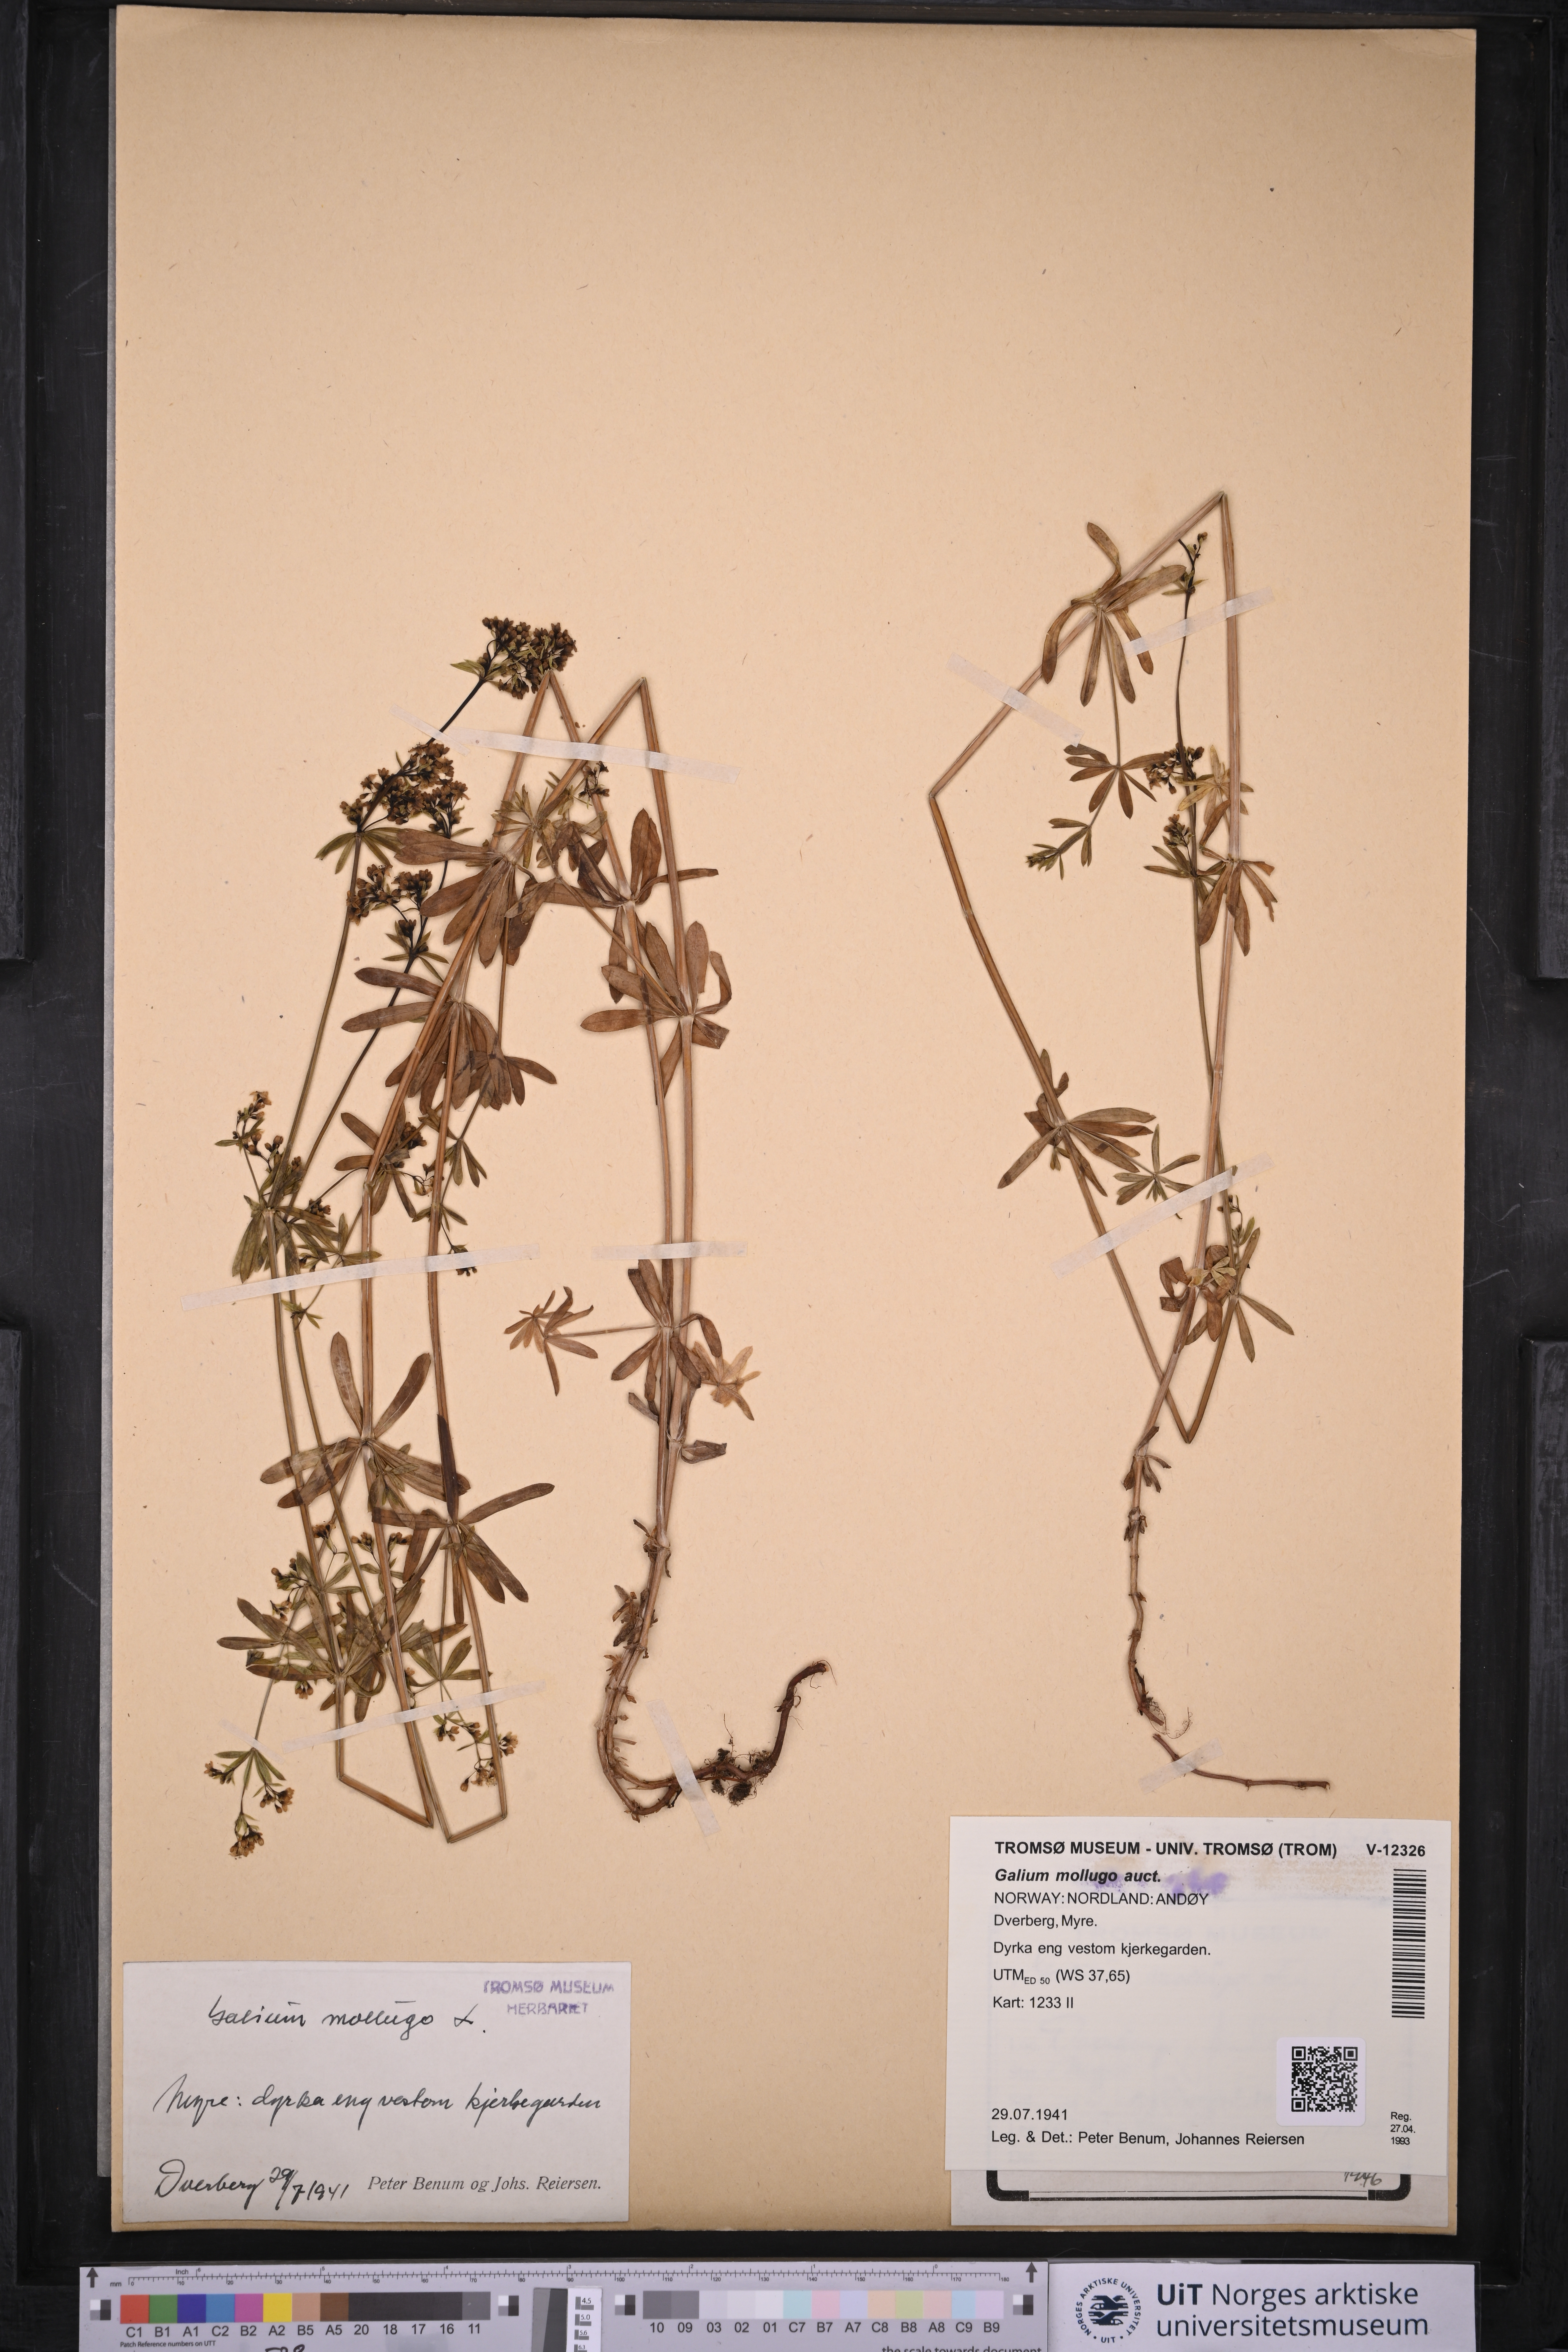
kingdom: Plantae
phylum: Tracheophyta
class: Magnoliopsida
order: Gentianales
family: Rubiaceae
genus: Galium
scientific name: Galium
